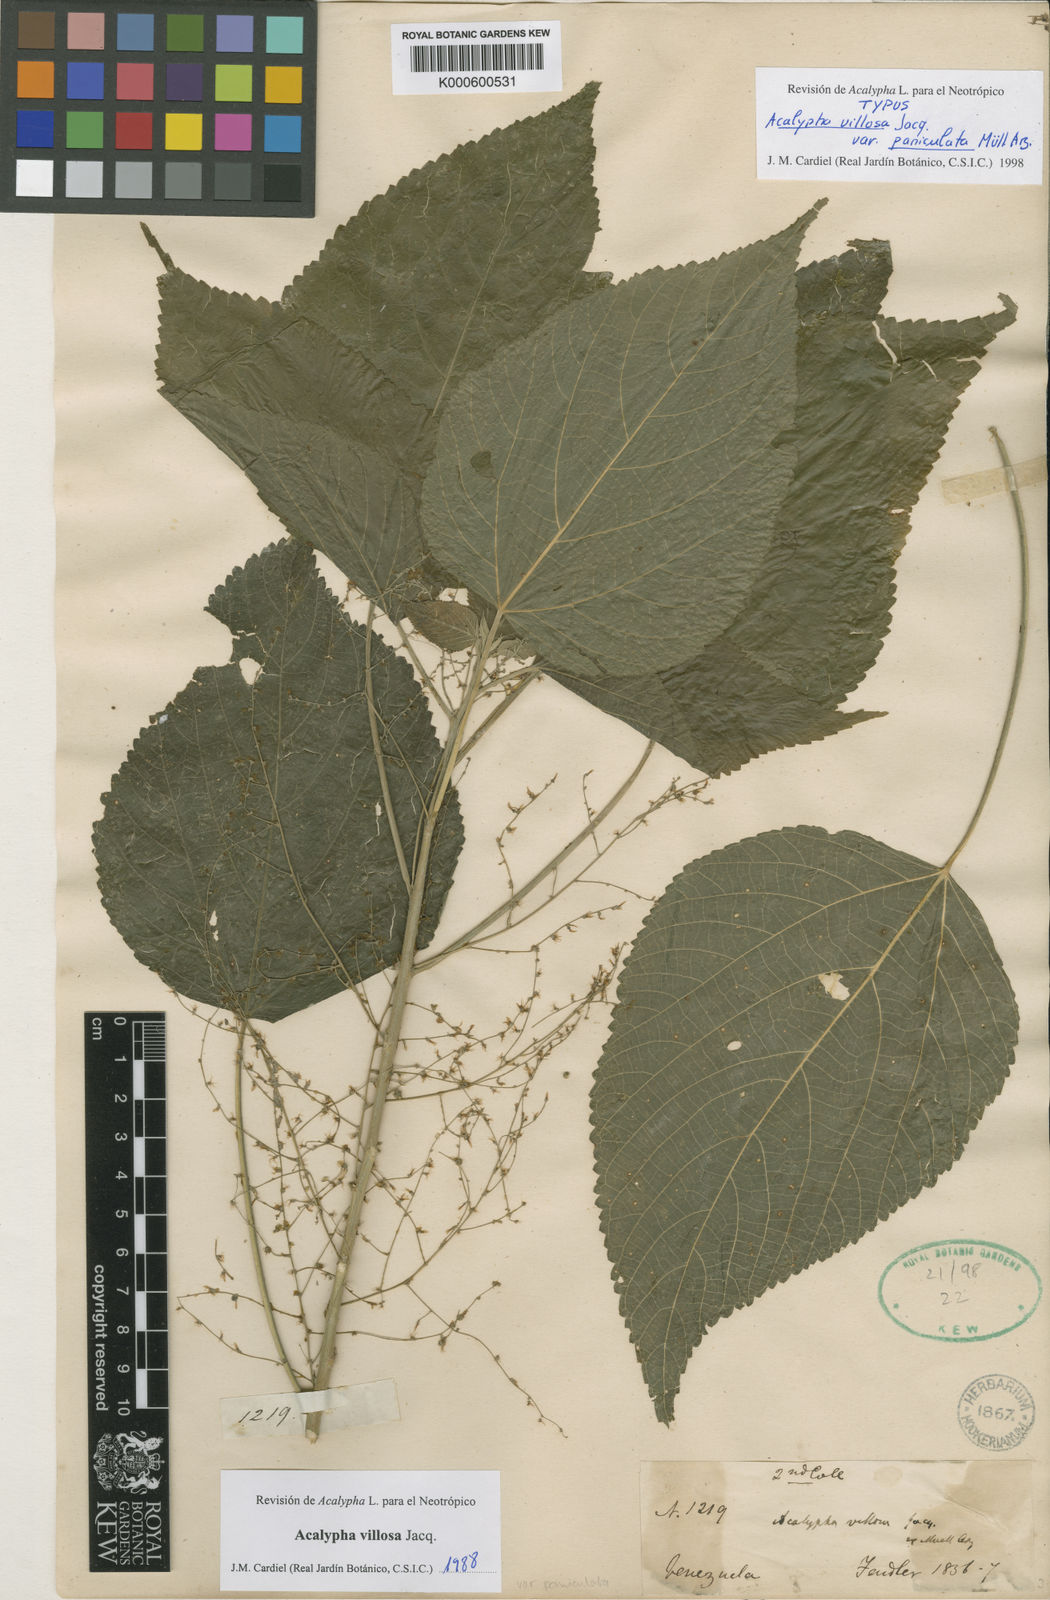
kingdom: Plantae
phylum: Tracheophyta
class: Magnoliopsida
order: Malpighiales
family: Euphorbiaceae
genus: Acalypha
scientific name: Acalypha villosa
